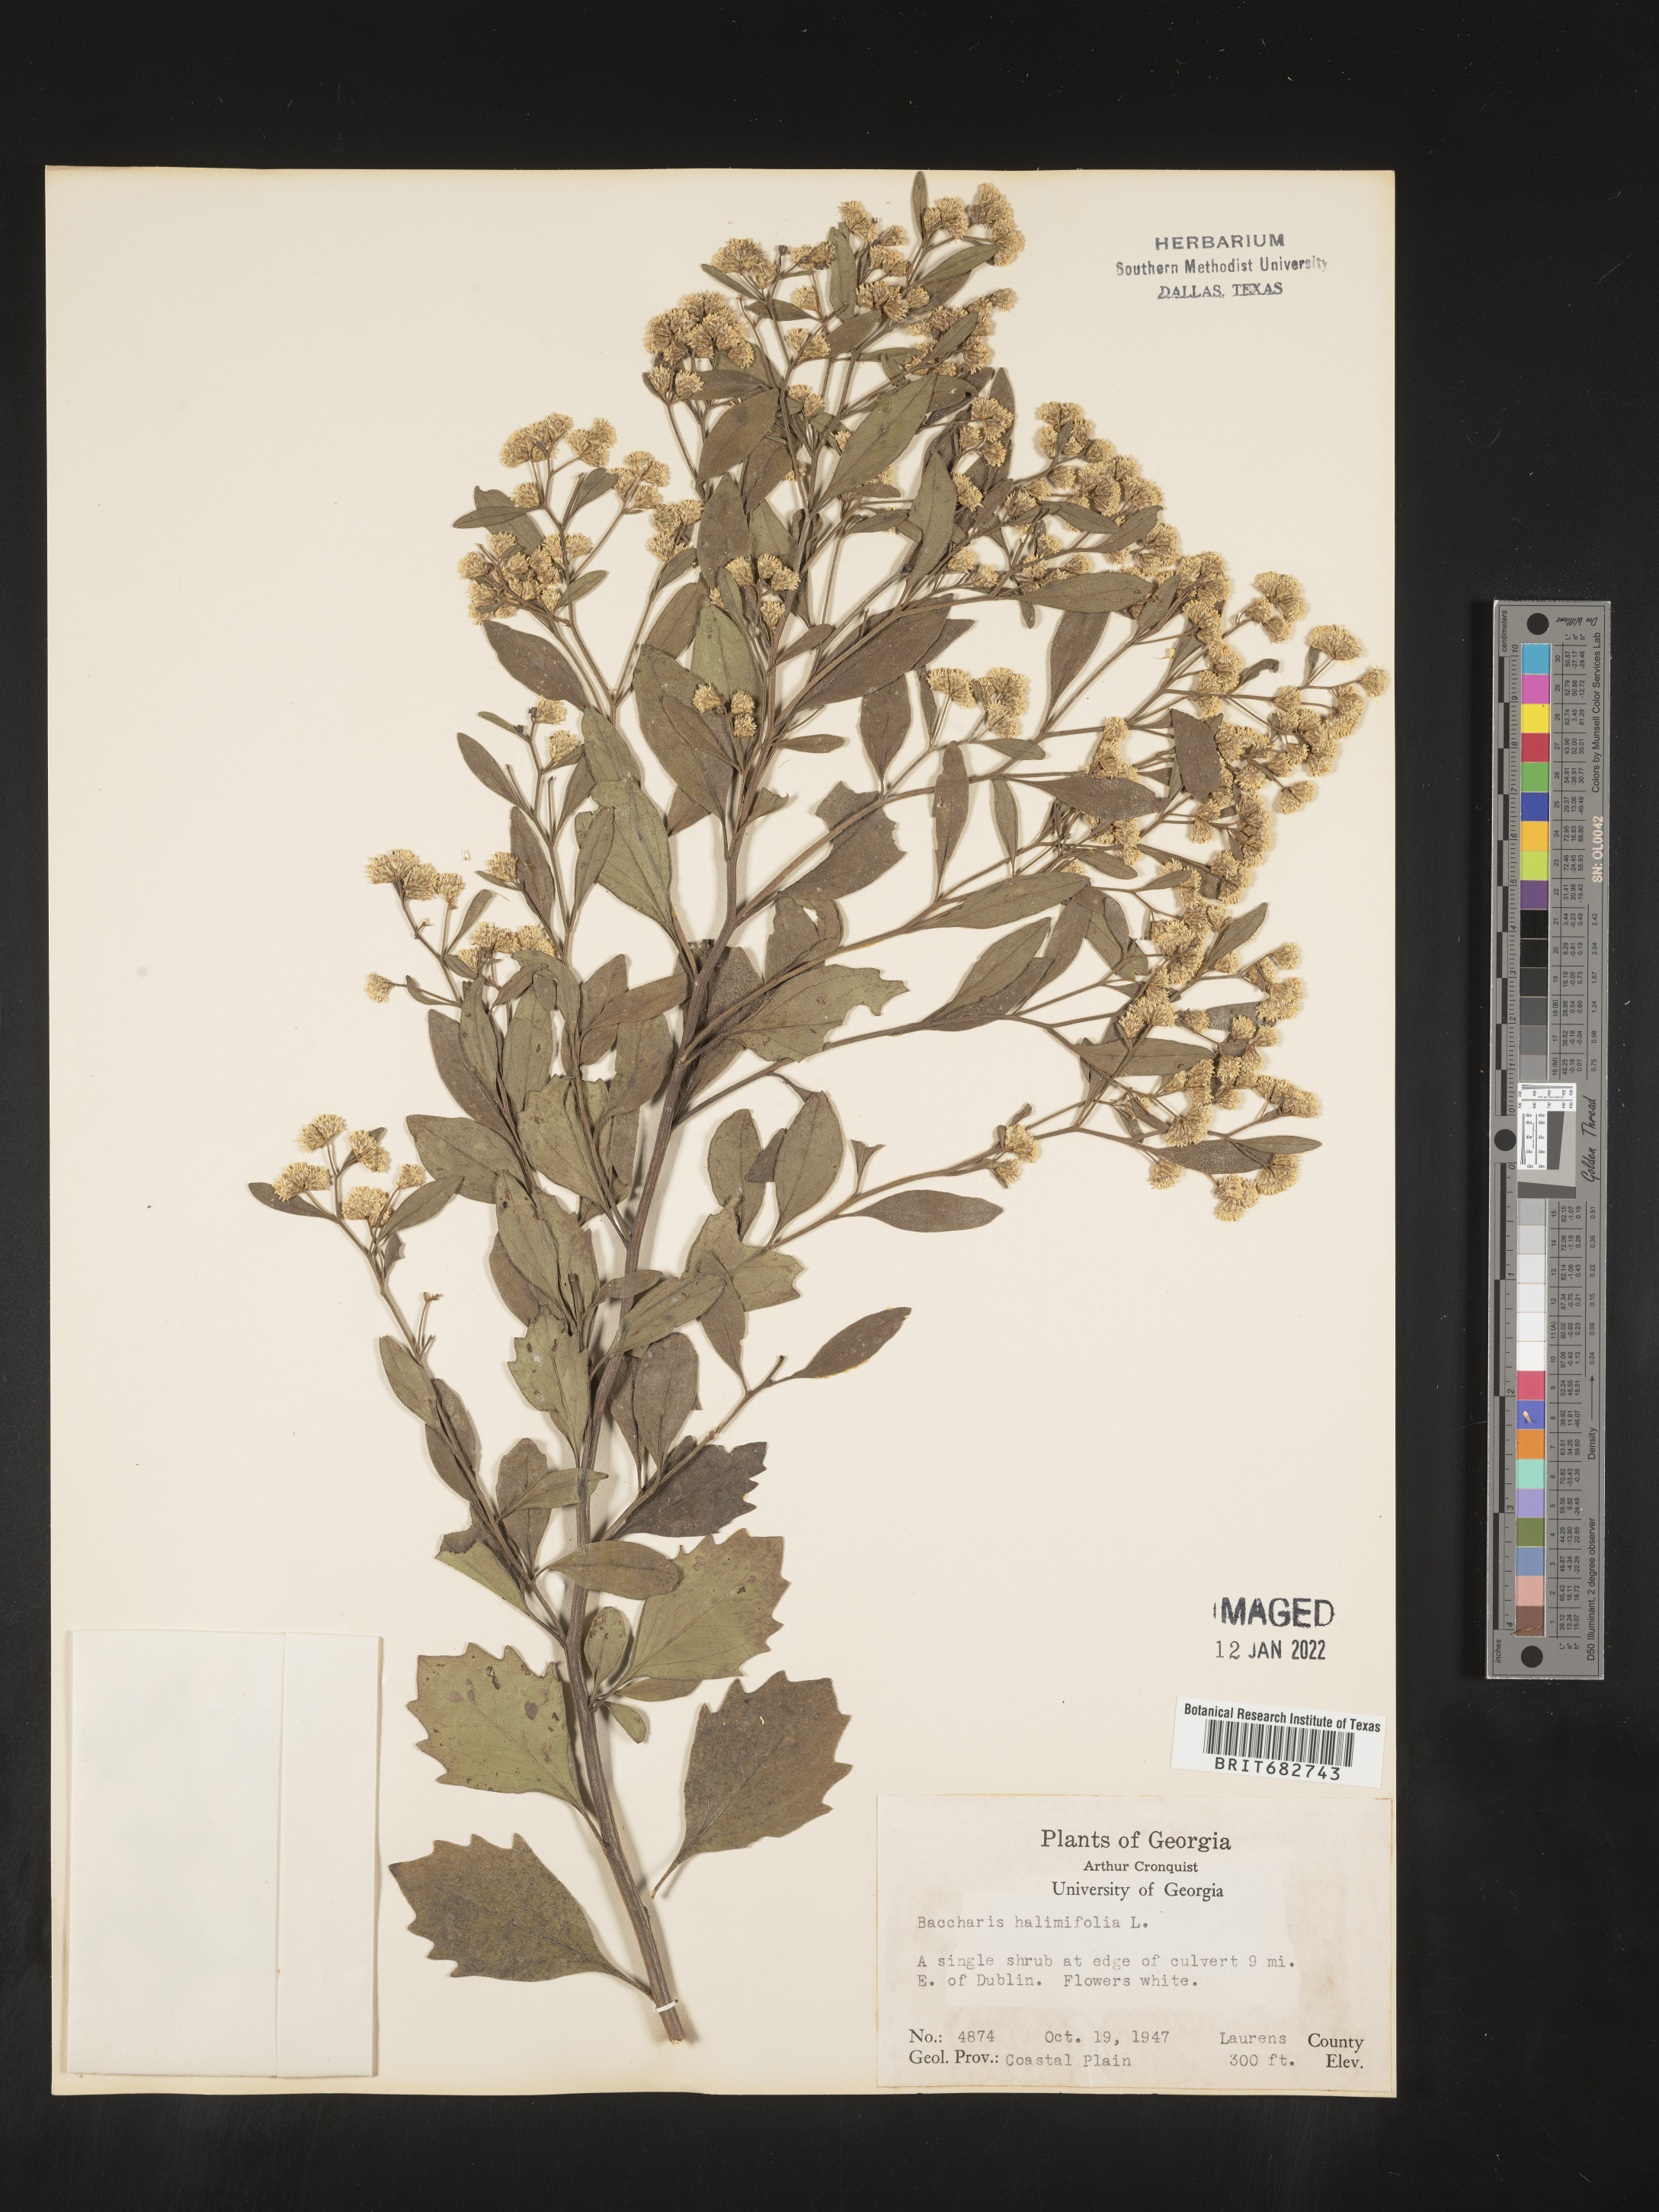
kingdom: Plantae
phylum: Tracheophyta
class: Magnoliopsida
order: Asterales
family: Asteraceae
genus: Nidorella
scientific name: Nidorella ivifolia
